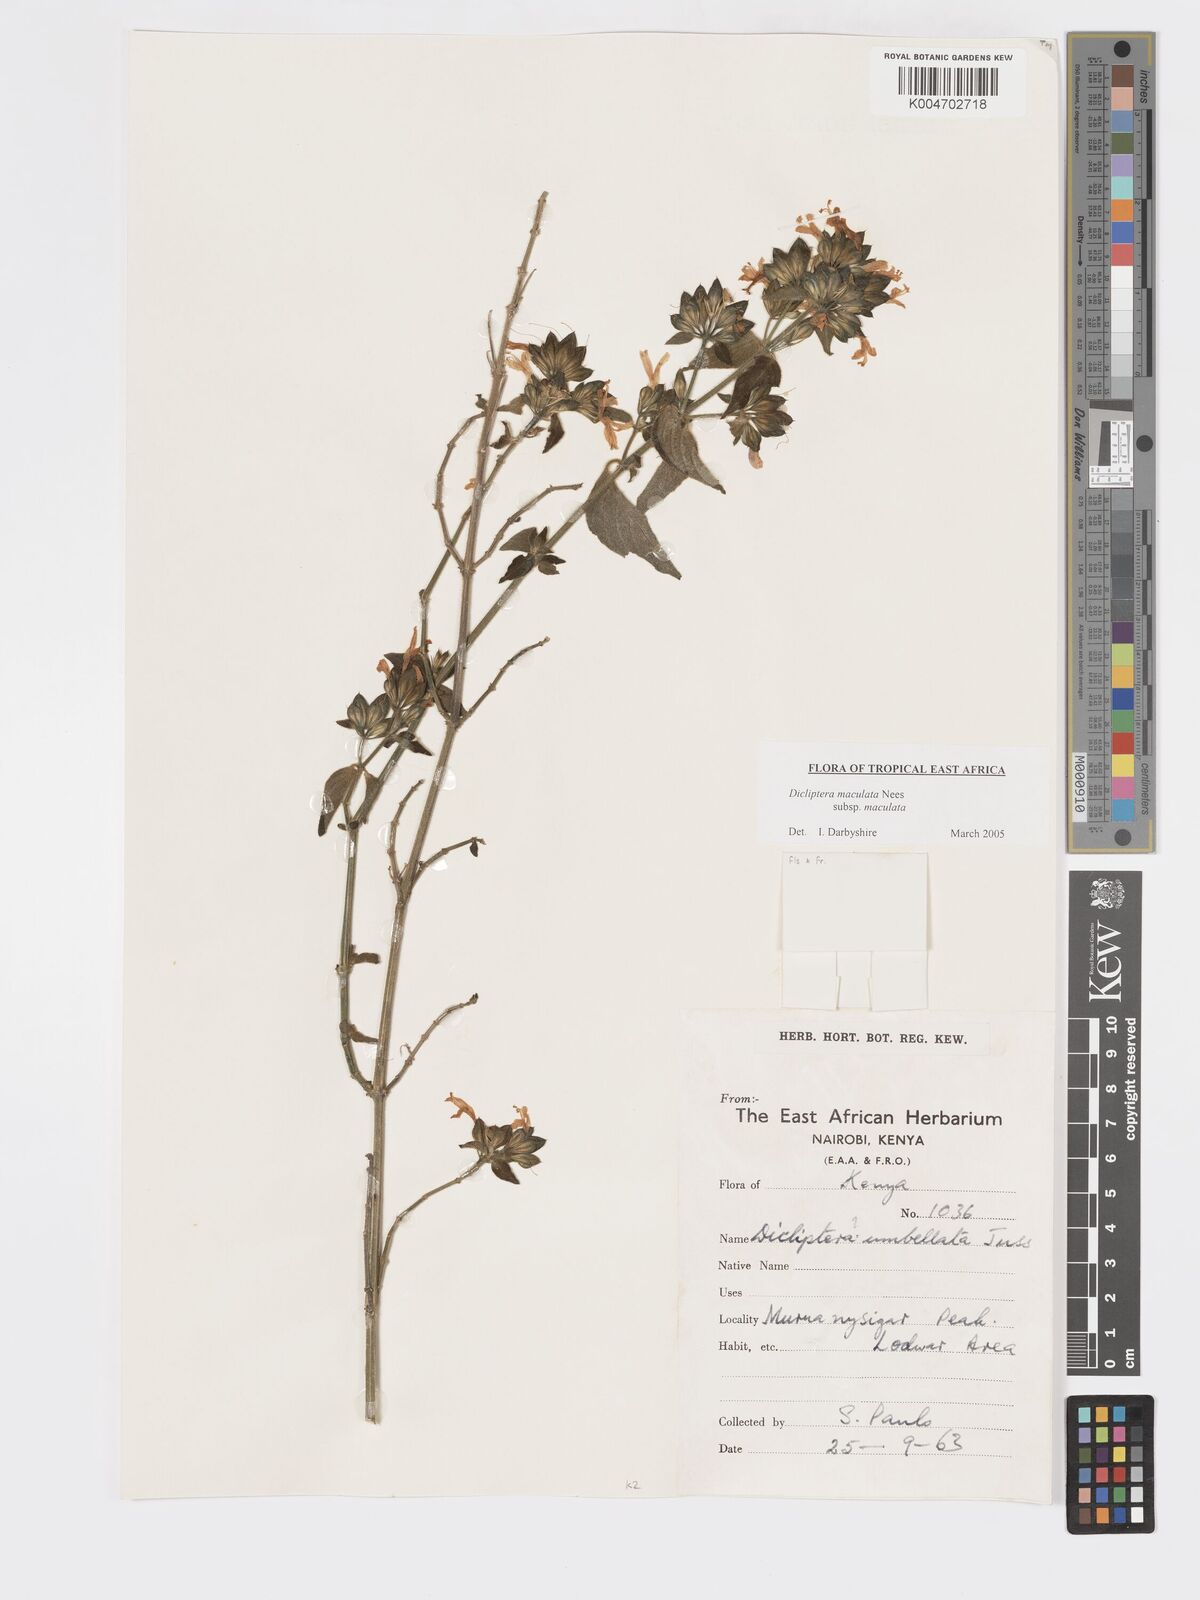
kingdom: Plantae
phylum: Tracheophyta
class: Magnoliopsida
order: Lamiales
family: Acanthaceae
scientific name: Acanthaceae
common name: Acanthaceae
